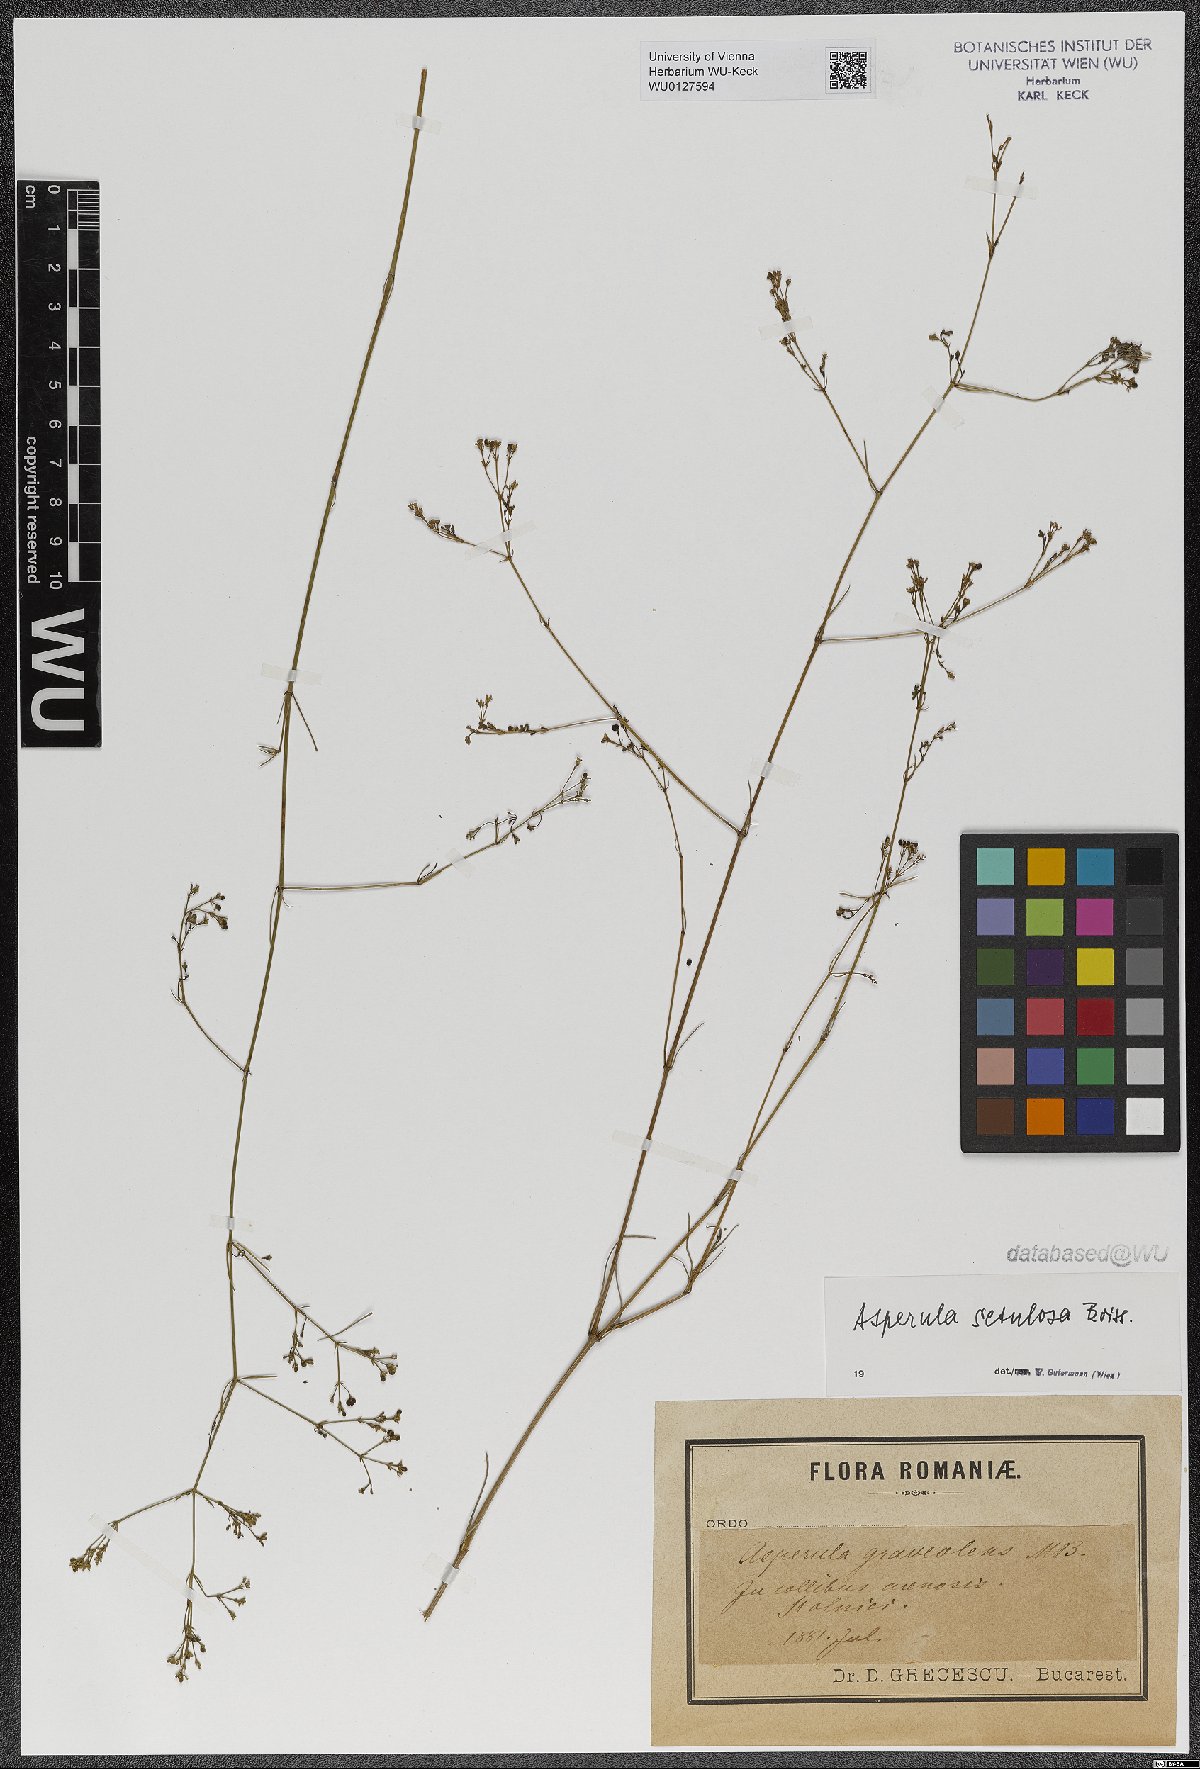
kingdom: Plantae
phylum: Tracheophyta
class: Magnoliopsida
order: Gentianales
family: Rubiaceae
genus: Cynanchica
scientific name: Cynanchica setulosa
